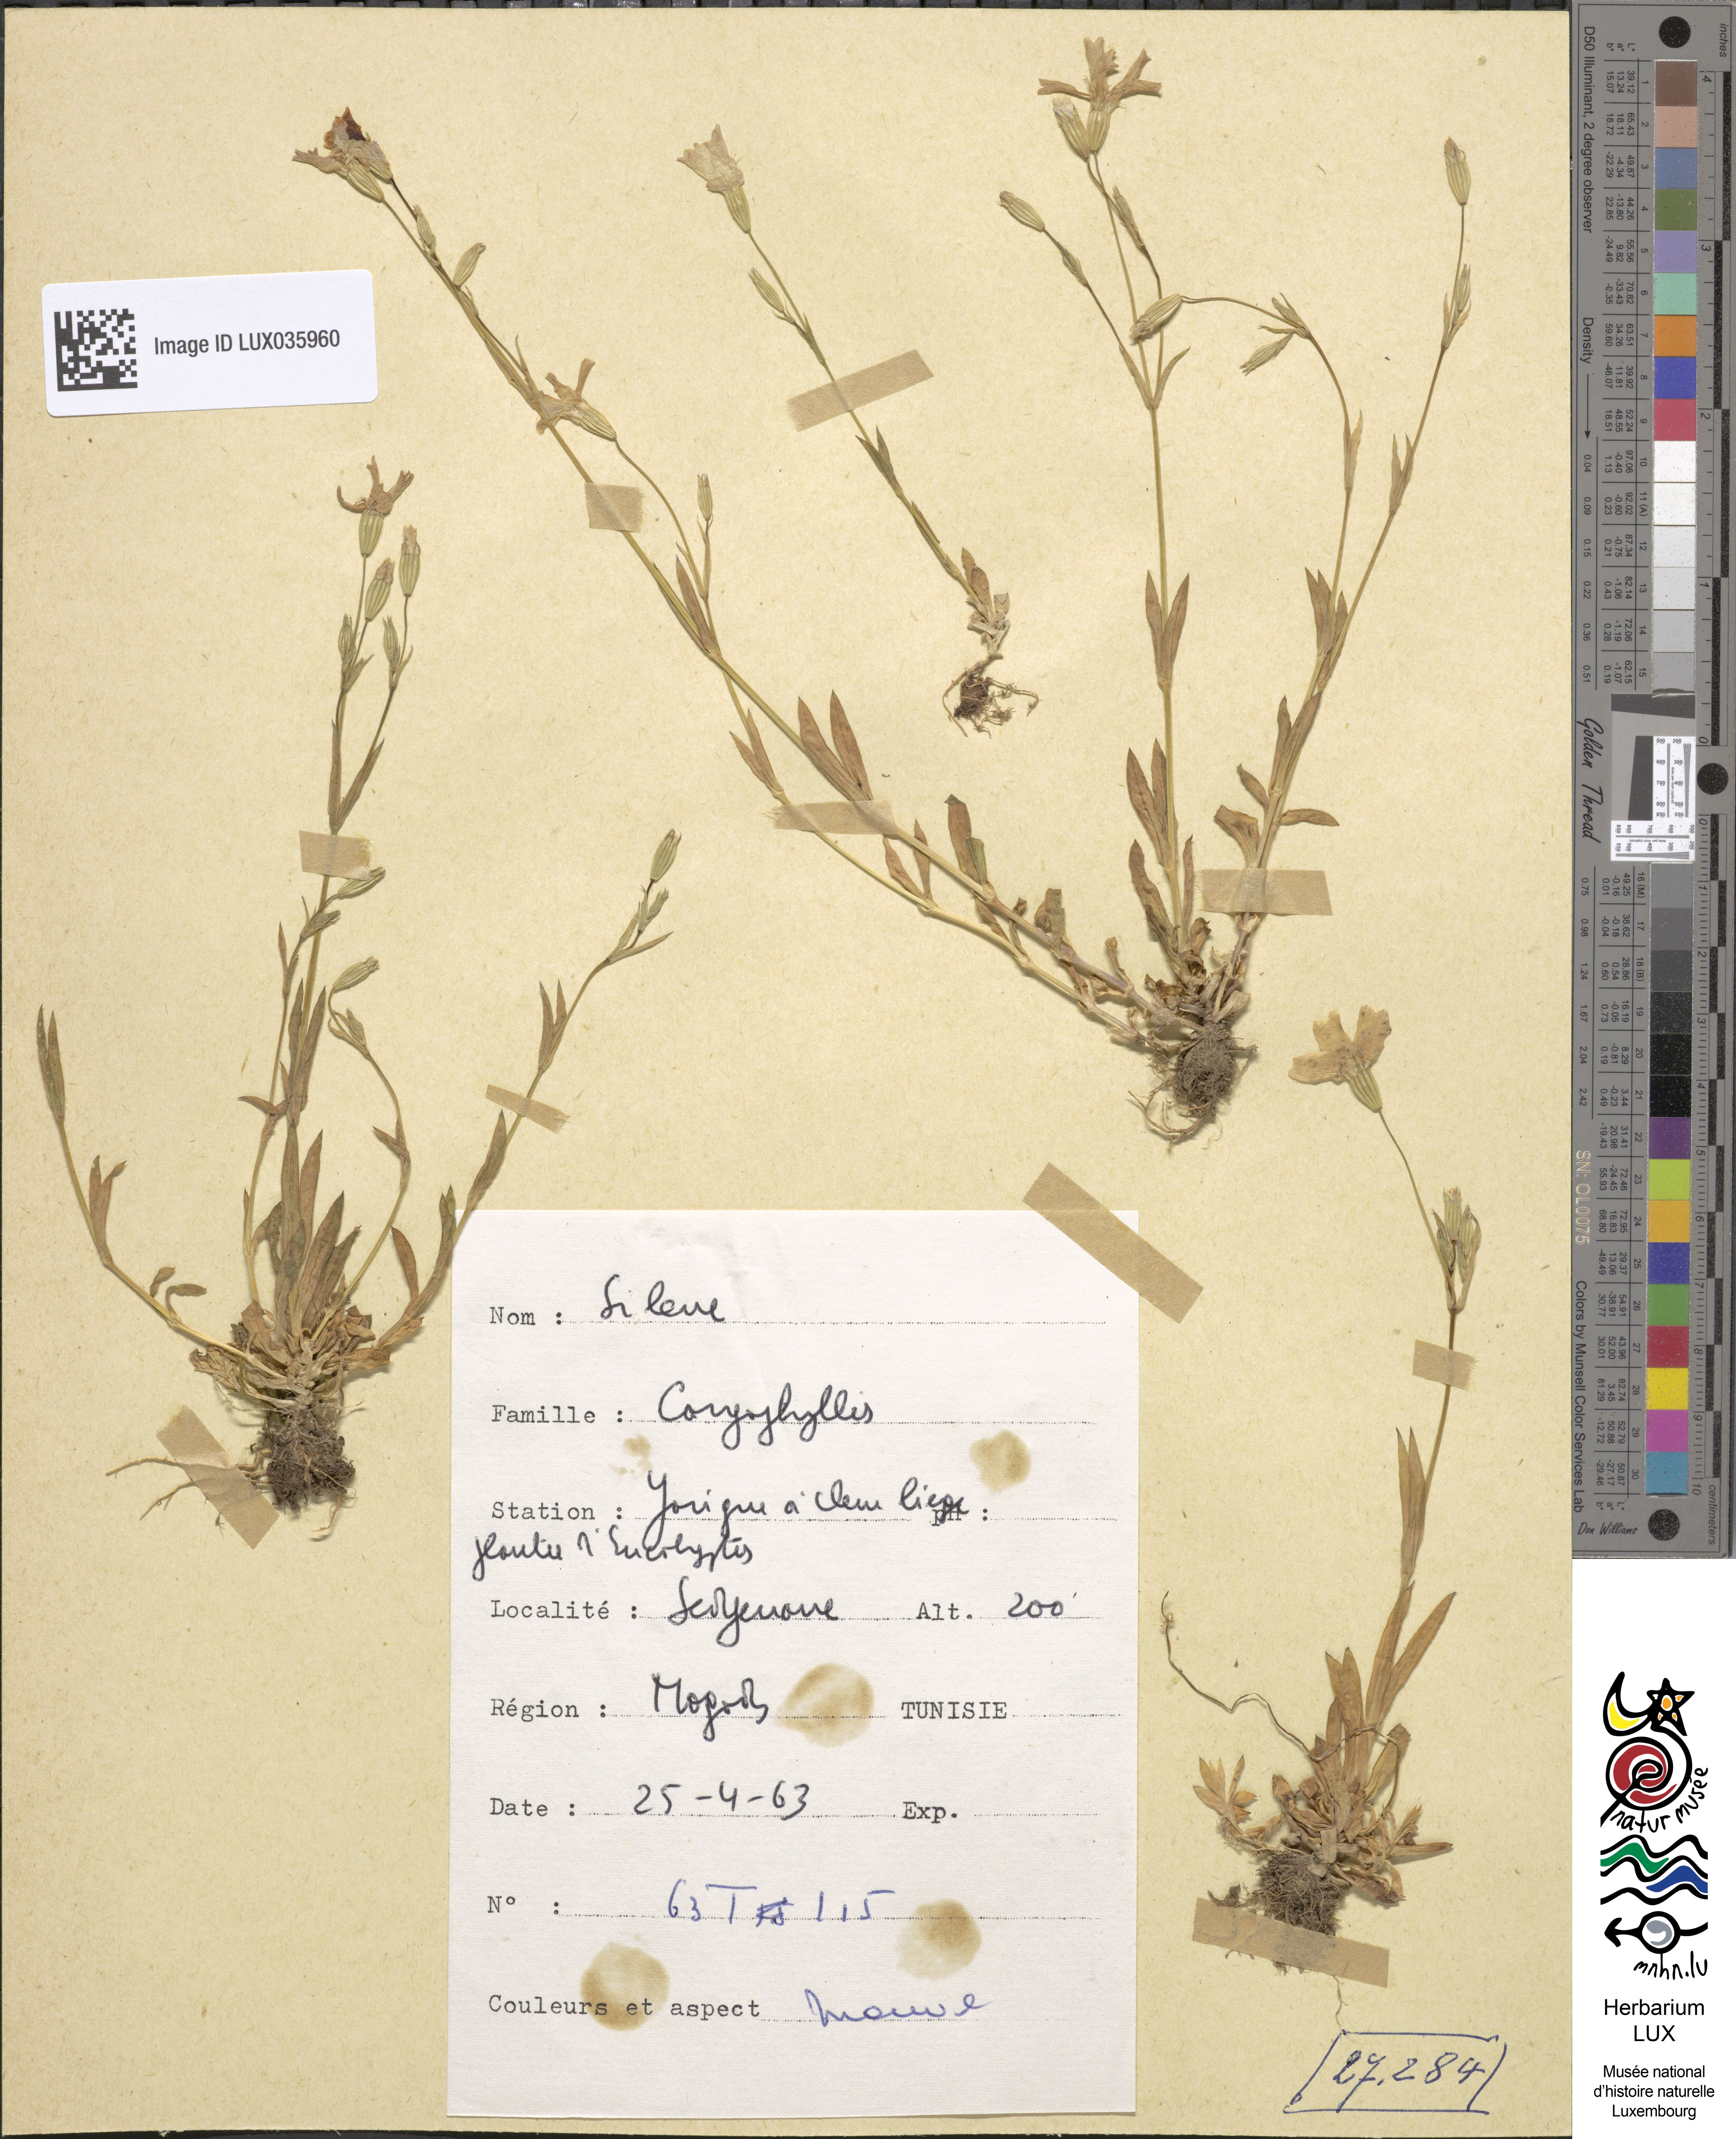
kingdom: Plantae
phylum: Tracheophyta
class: Magnoliopsida
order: Caryophyllales
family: Caryophyllaceae
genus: Silene
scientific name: Silene
